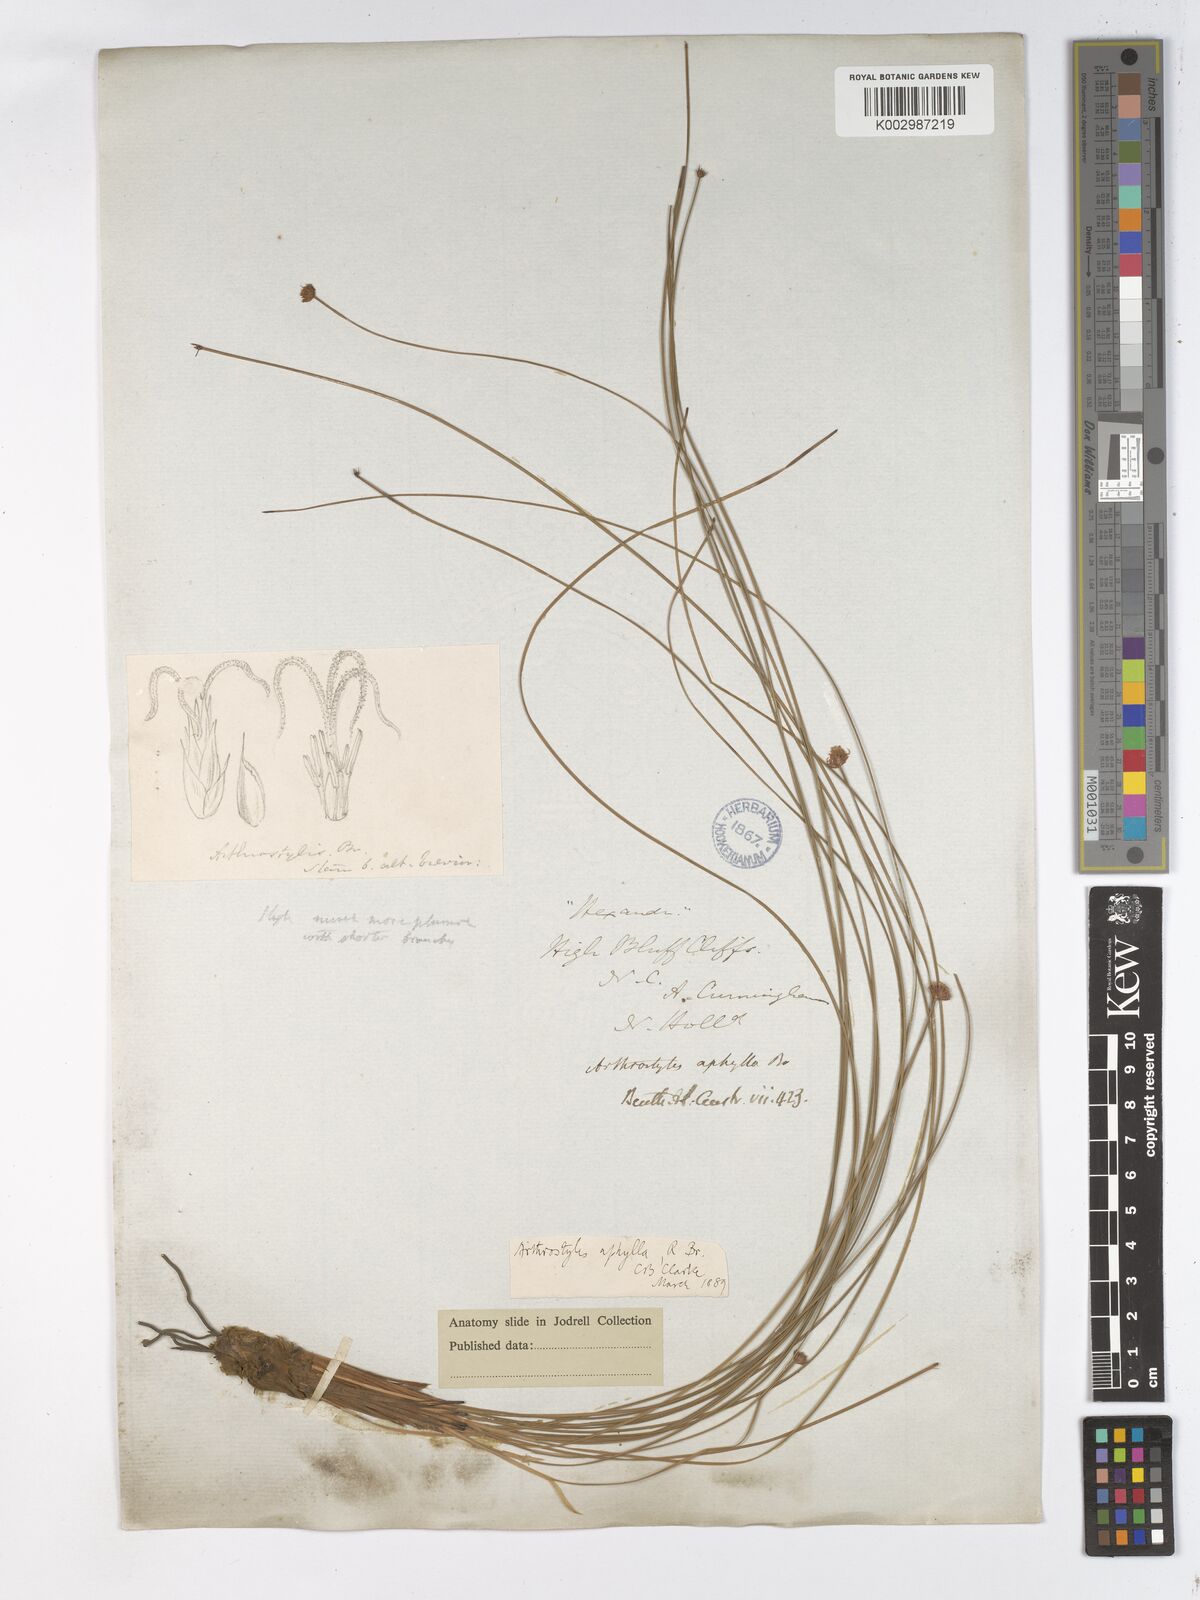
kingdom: Plantae
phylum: Tracheophyta
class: Liliopsida
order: Poales
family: Cyperaceae
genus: Arthrostylis
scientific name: Arthrostylis aphylla
